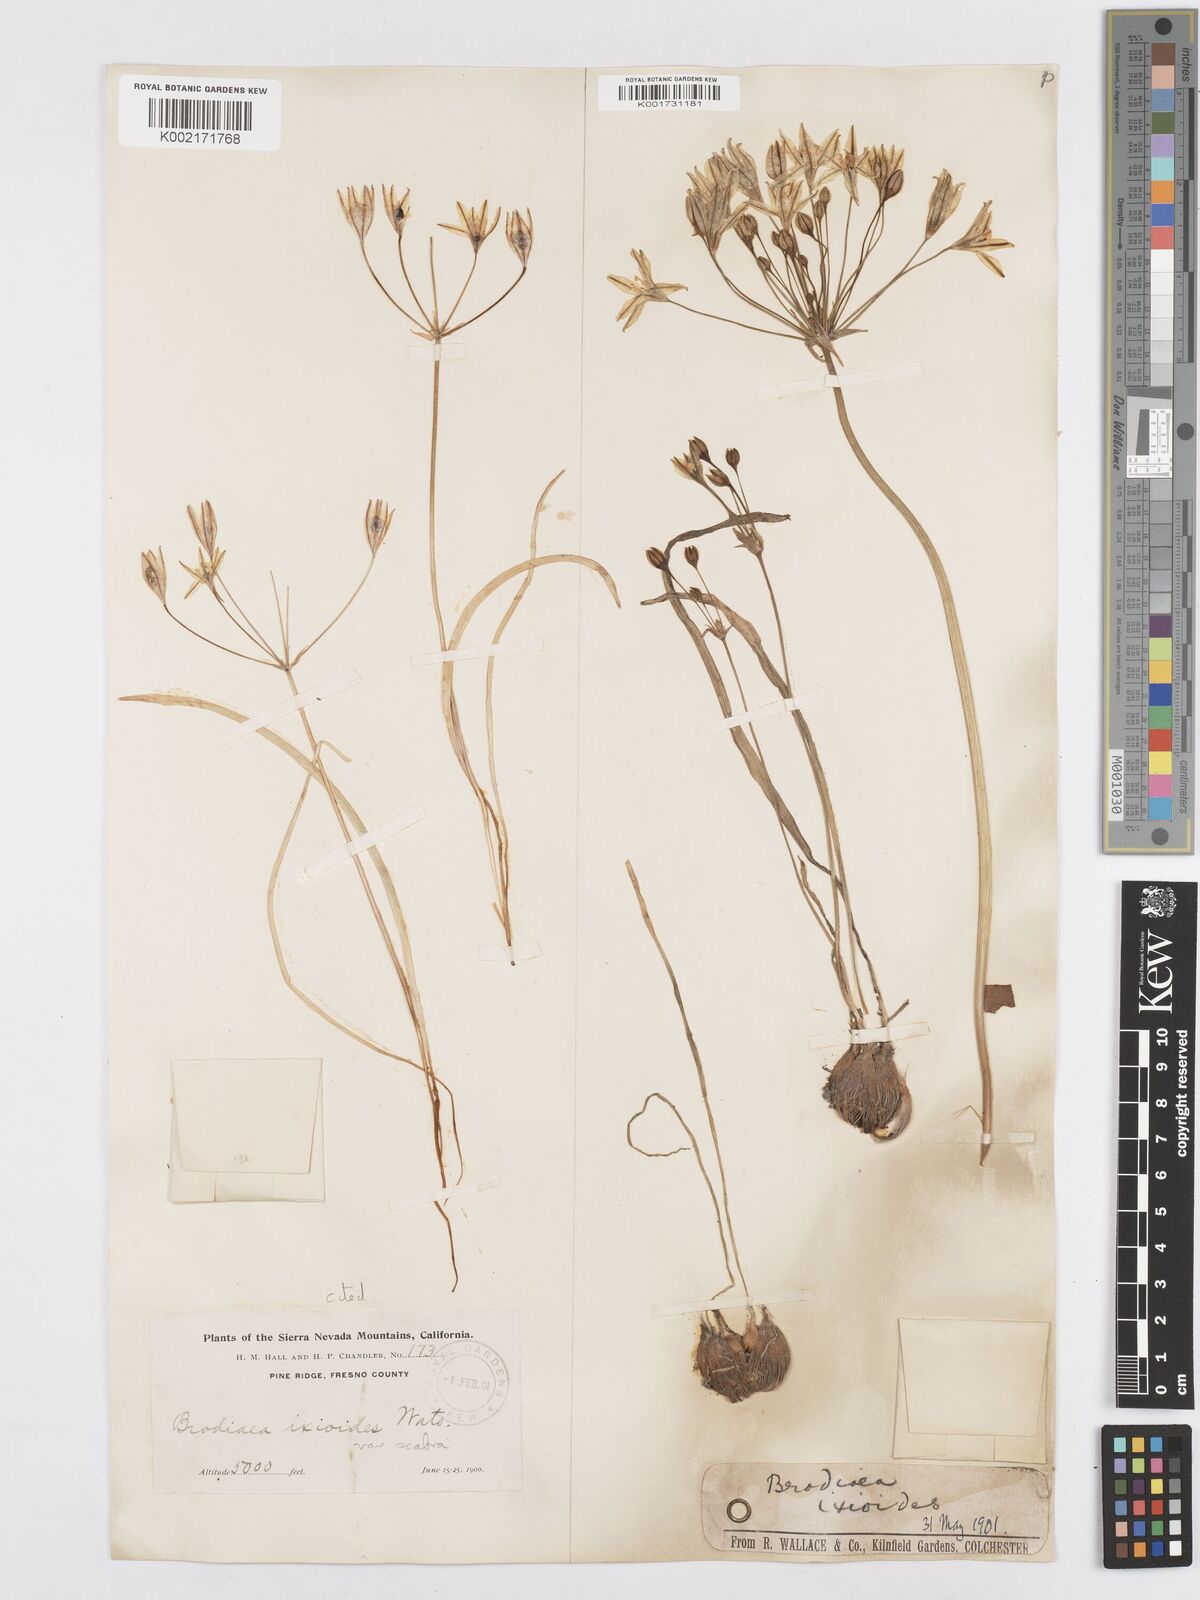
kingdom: Plantae
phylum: Tracheophyta
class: Liliopsida
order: Asparagales
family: Asparagaceae
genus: Triteleia
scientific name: Triteleia ixioides
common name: Yellow-brodiaea
